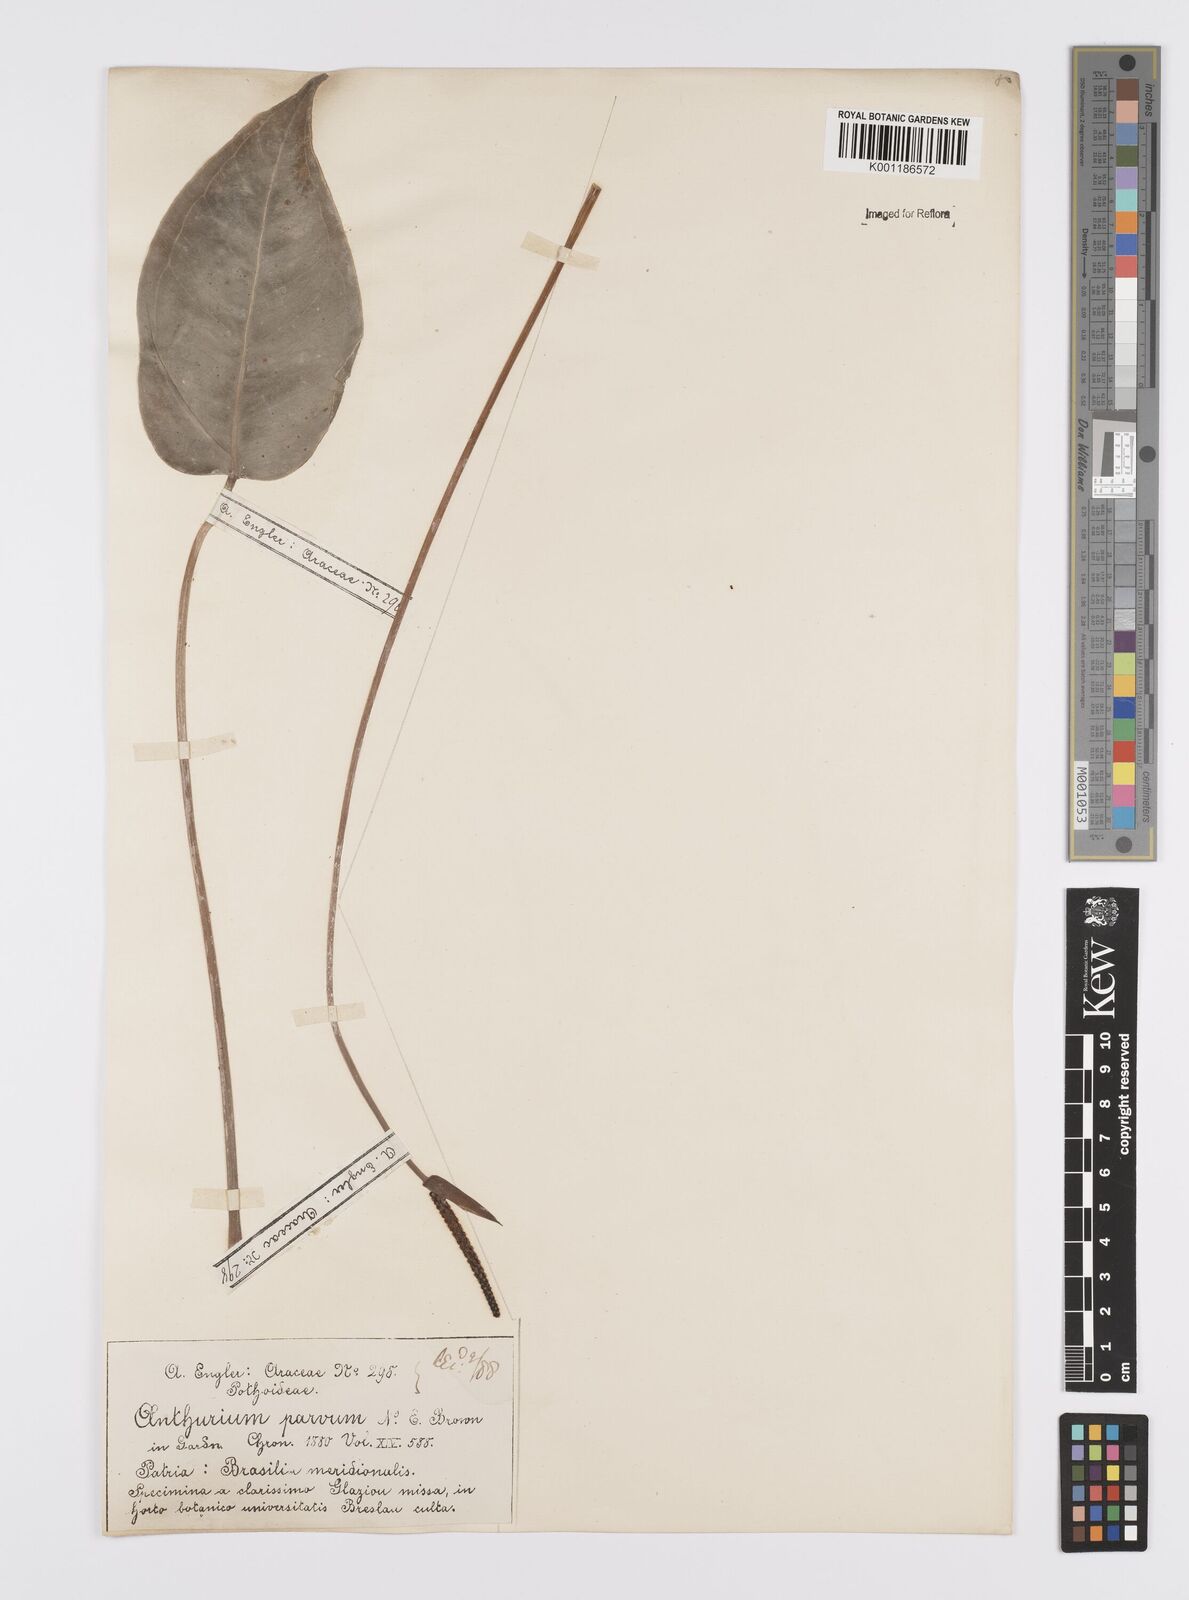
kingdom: Plantae
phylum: Tracheophyta
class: Liliopsida
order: Alismatales
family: Araceae
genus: Anthurium
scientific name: Anthurium augustinum
